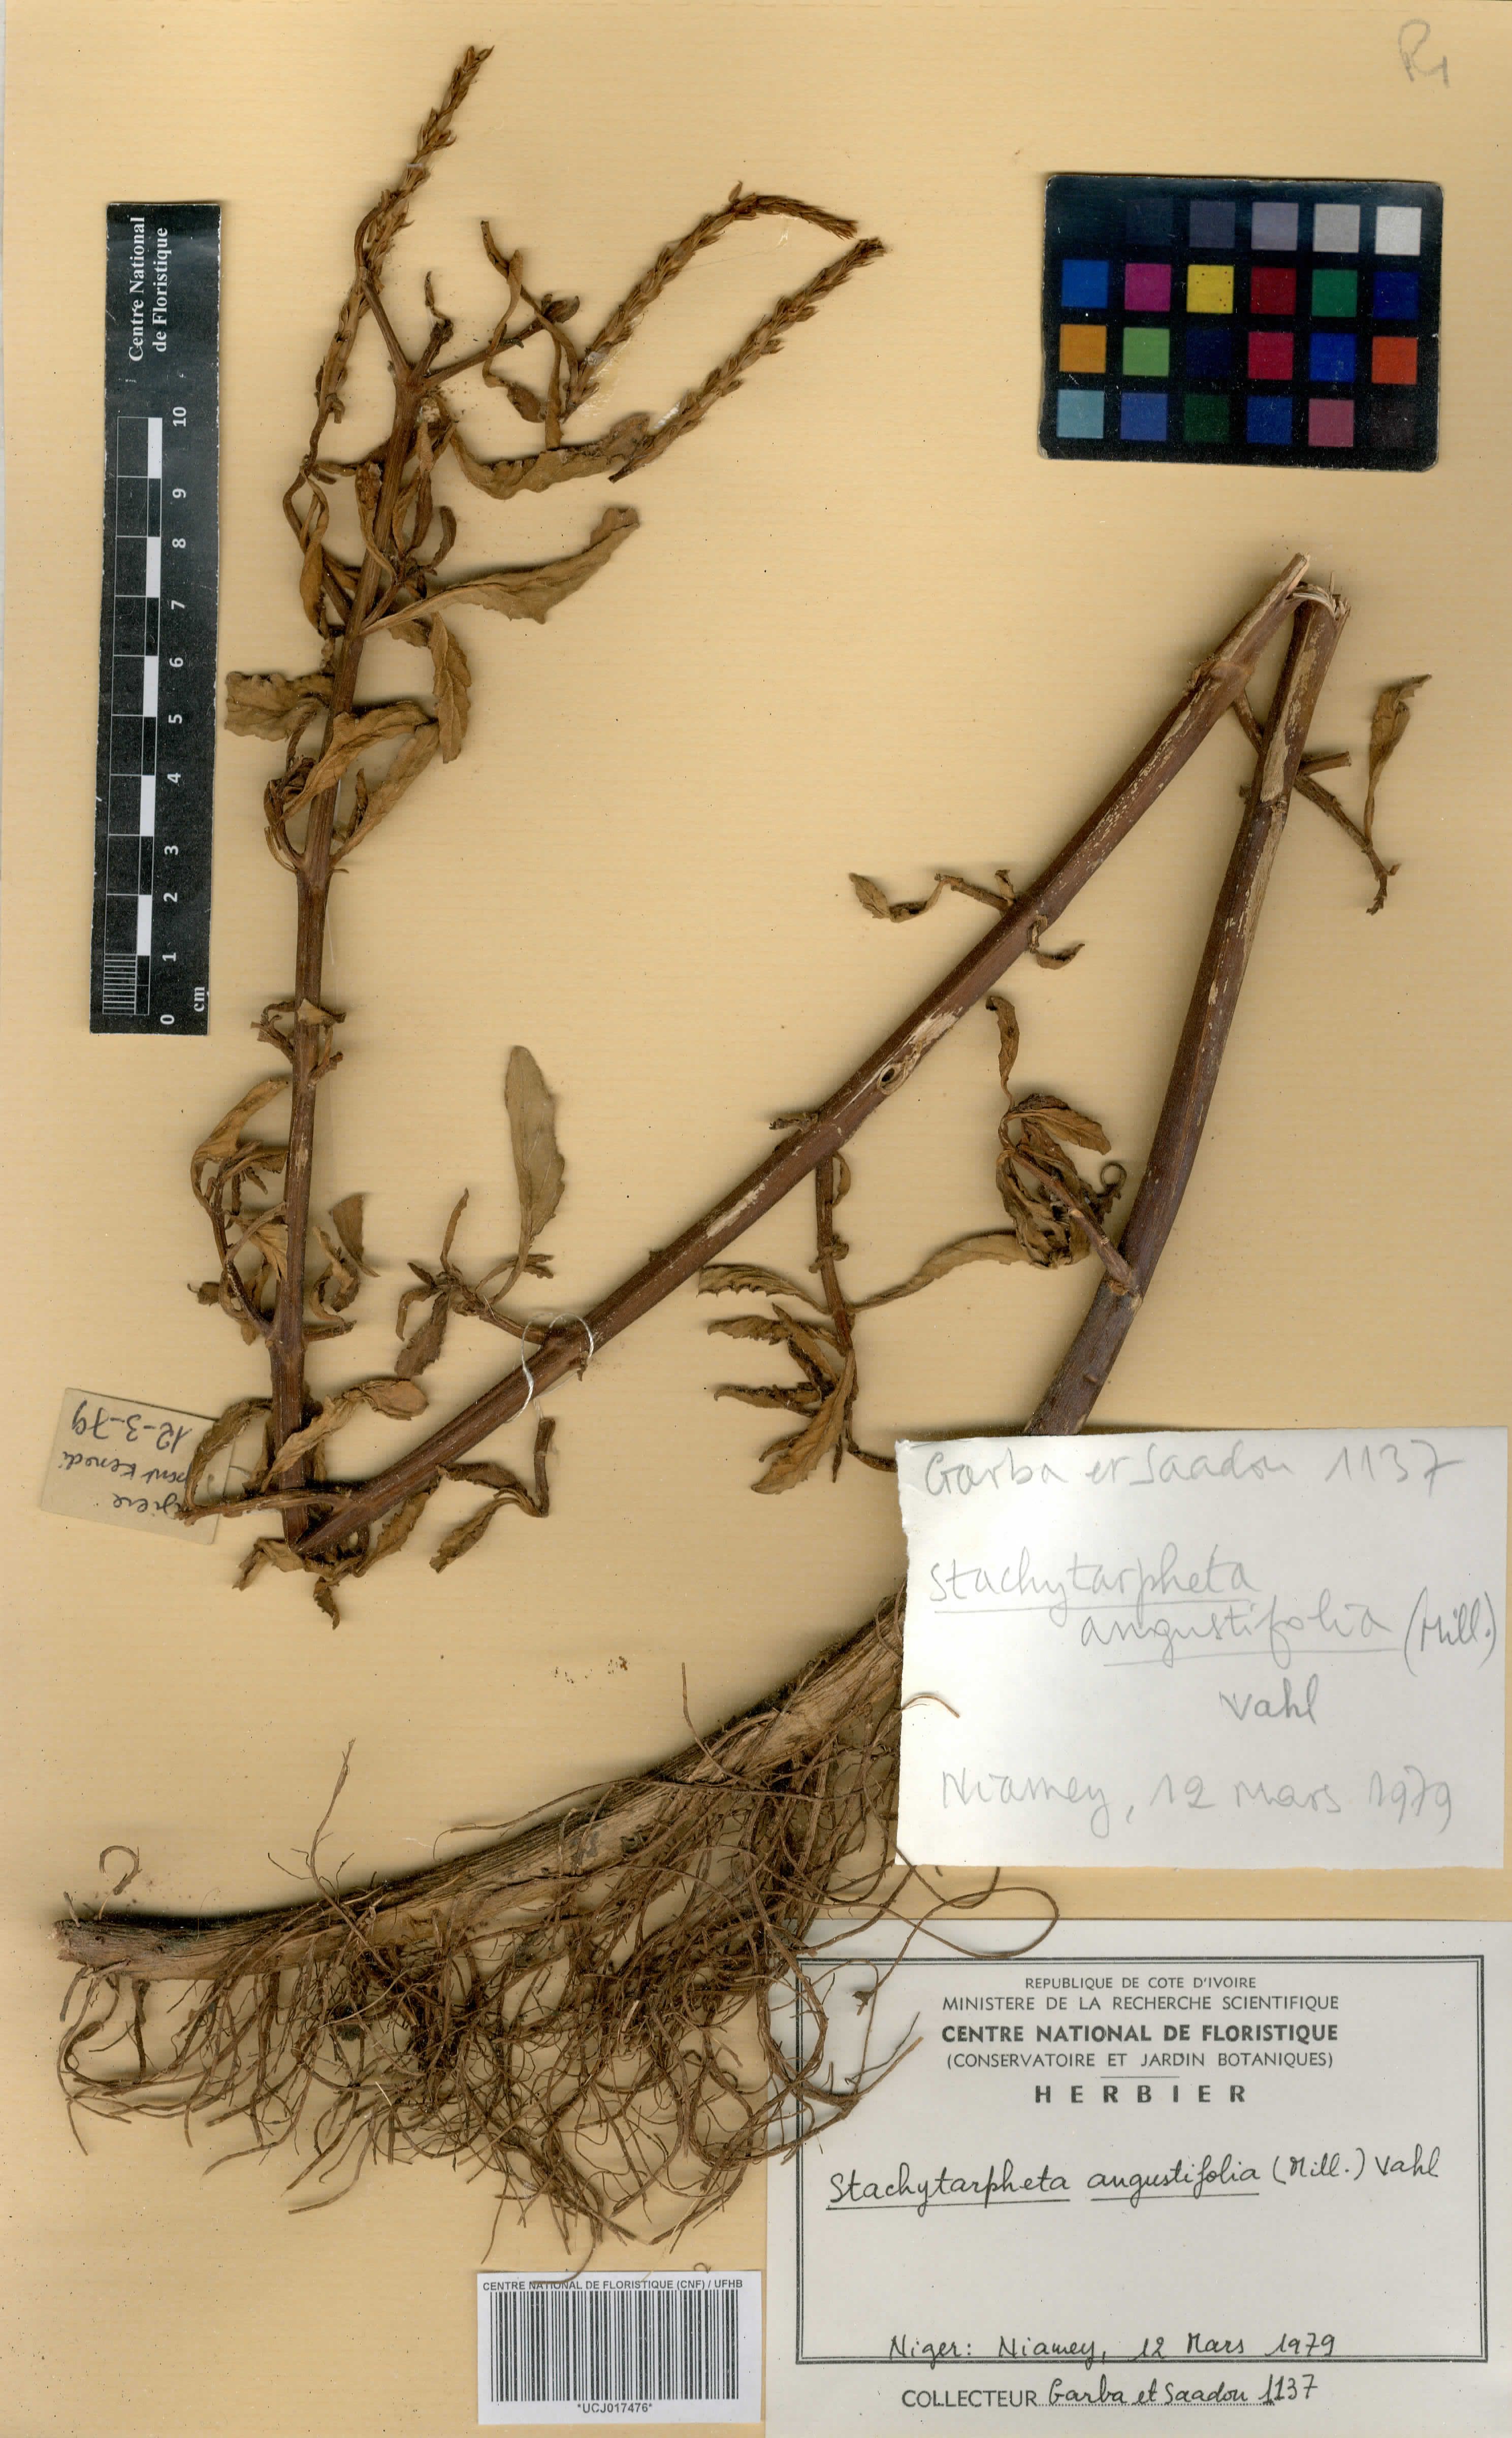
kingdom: Plantae
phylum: Tracheophyta
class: Magnoliopsida
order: Lamiales
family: Verbenaceae
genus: Stachytarpheta
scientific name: Stachytarpheta indica
